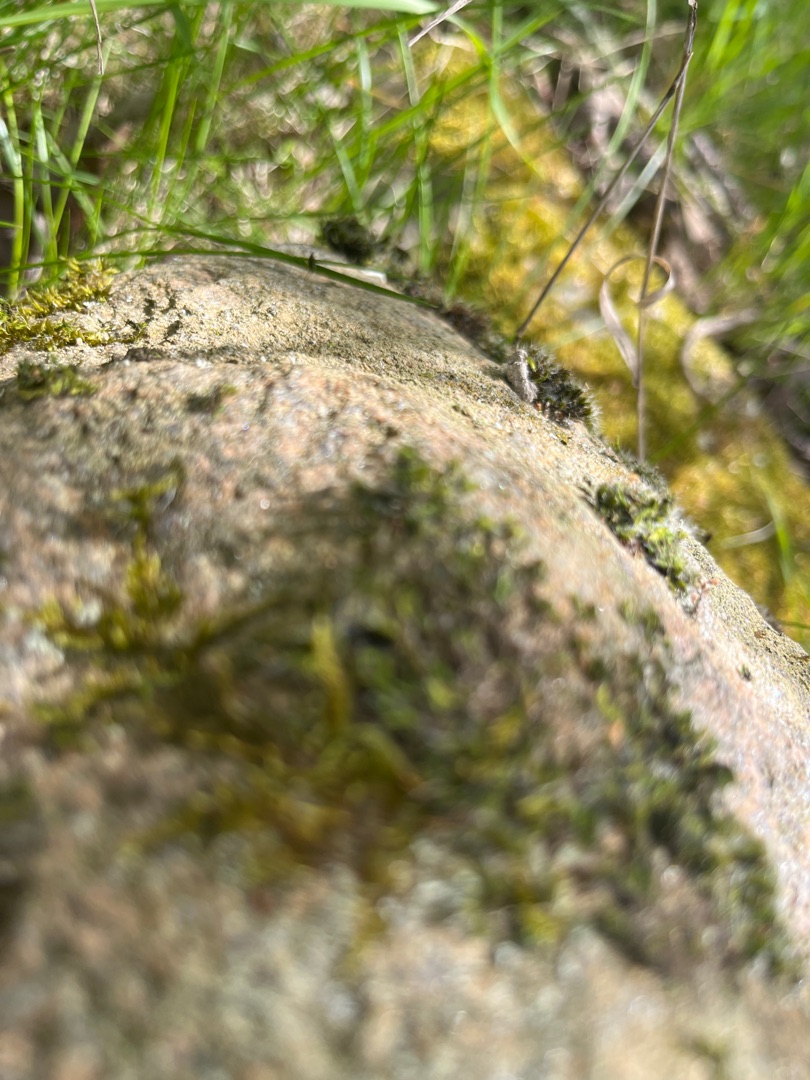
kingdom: Plantae
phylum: Bryophyta
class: Bryopsida
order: Grimmiales
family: Grimmiaceae
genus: Grimmia
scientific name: Grimmia pulvinata
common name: Pude-gråmos
